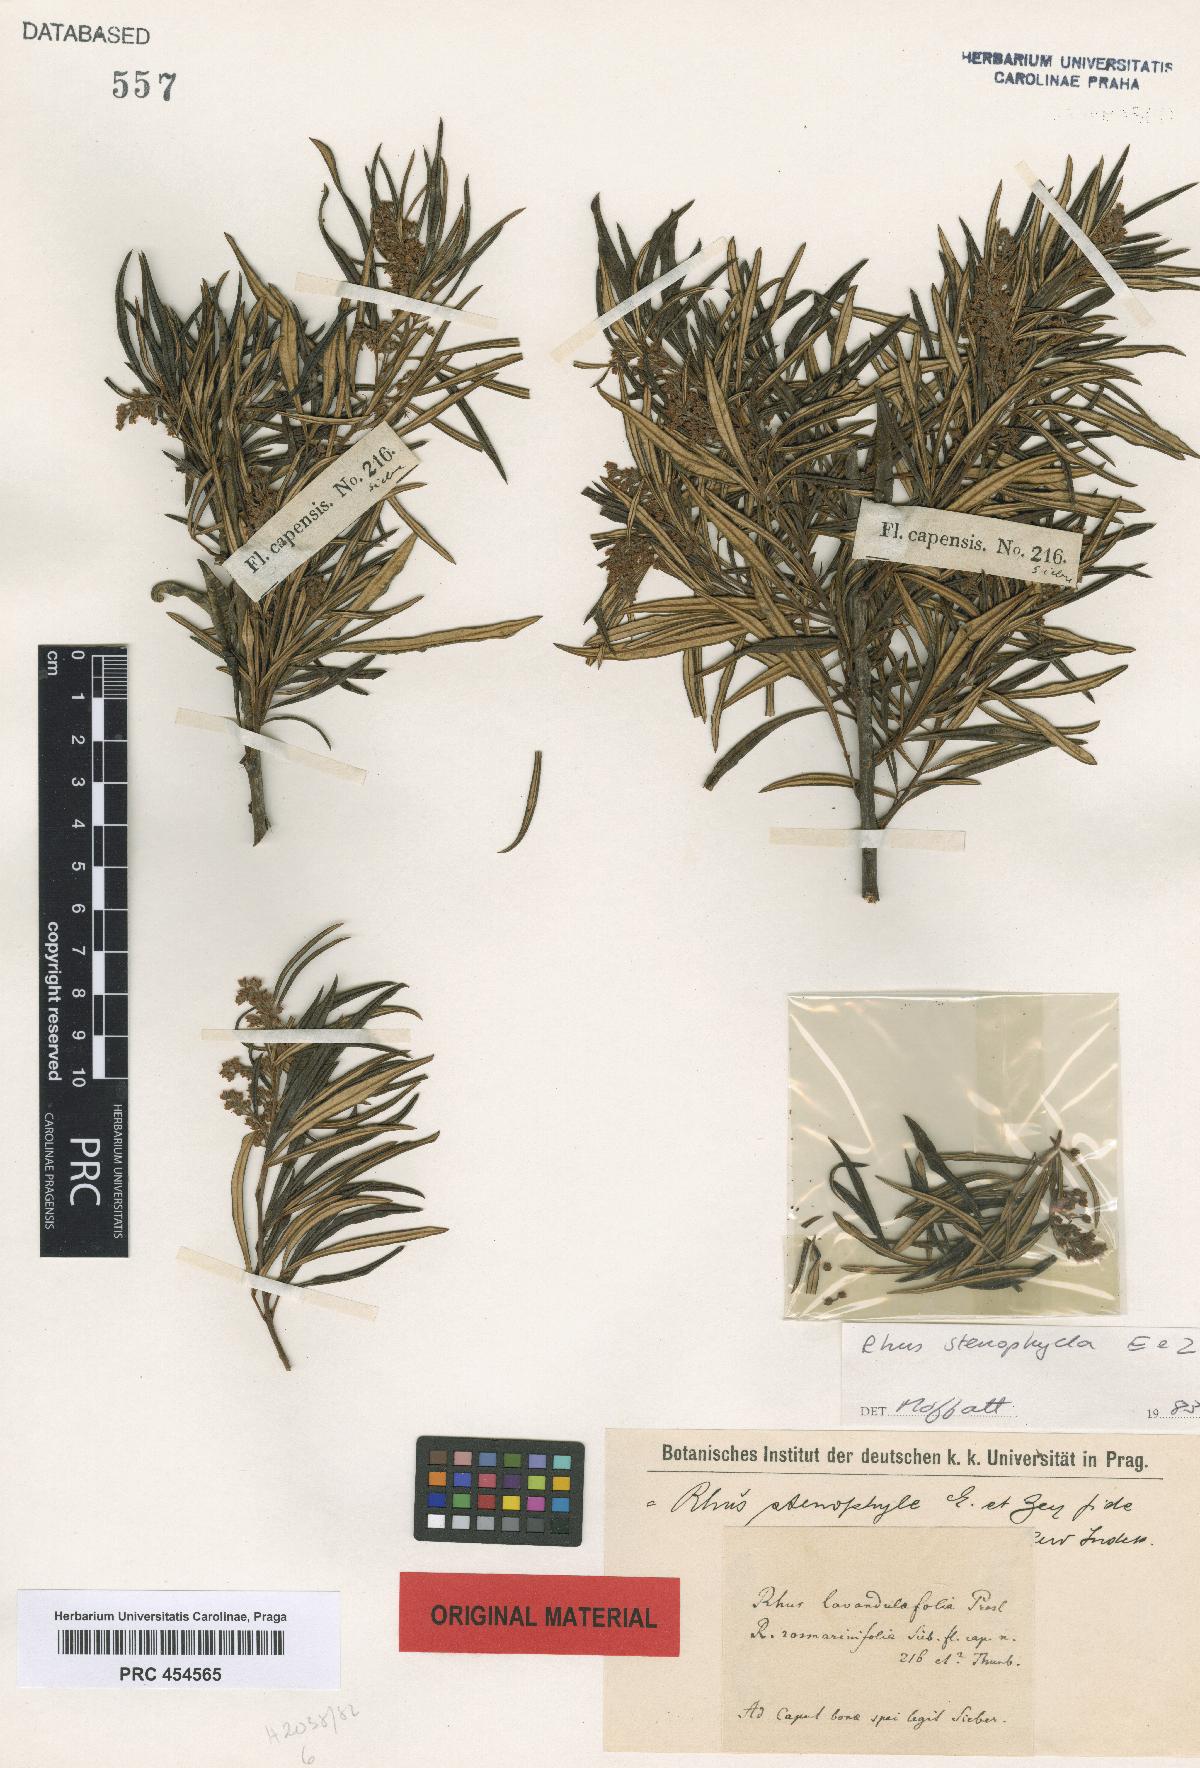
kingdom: Plantae
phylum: Tracheophyta
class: Magnoliopsida
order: Sapindales
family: Anacardiaceae
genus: Searsia
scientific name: Searsia stenophylla
